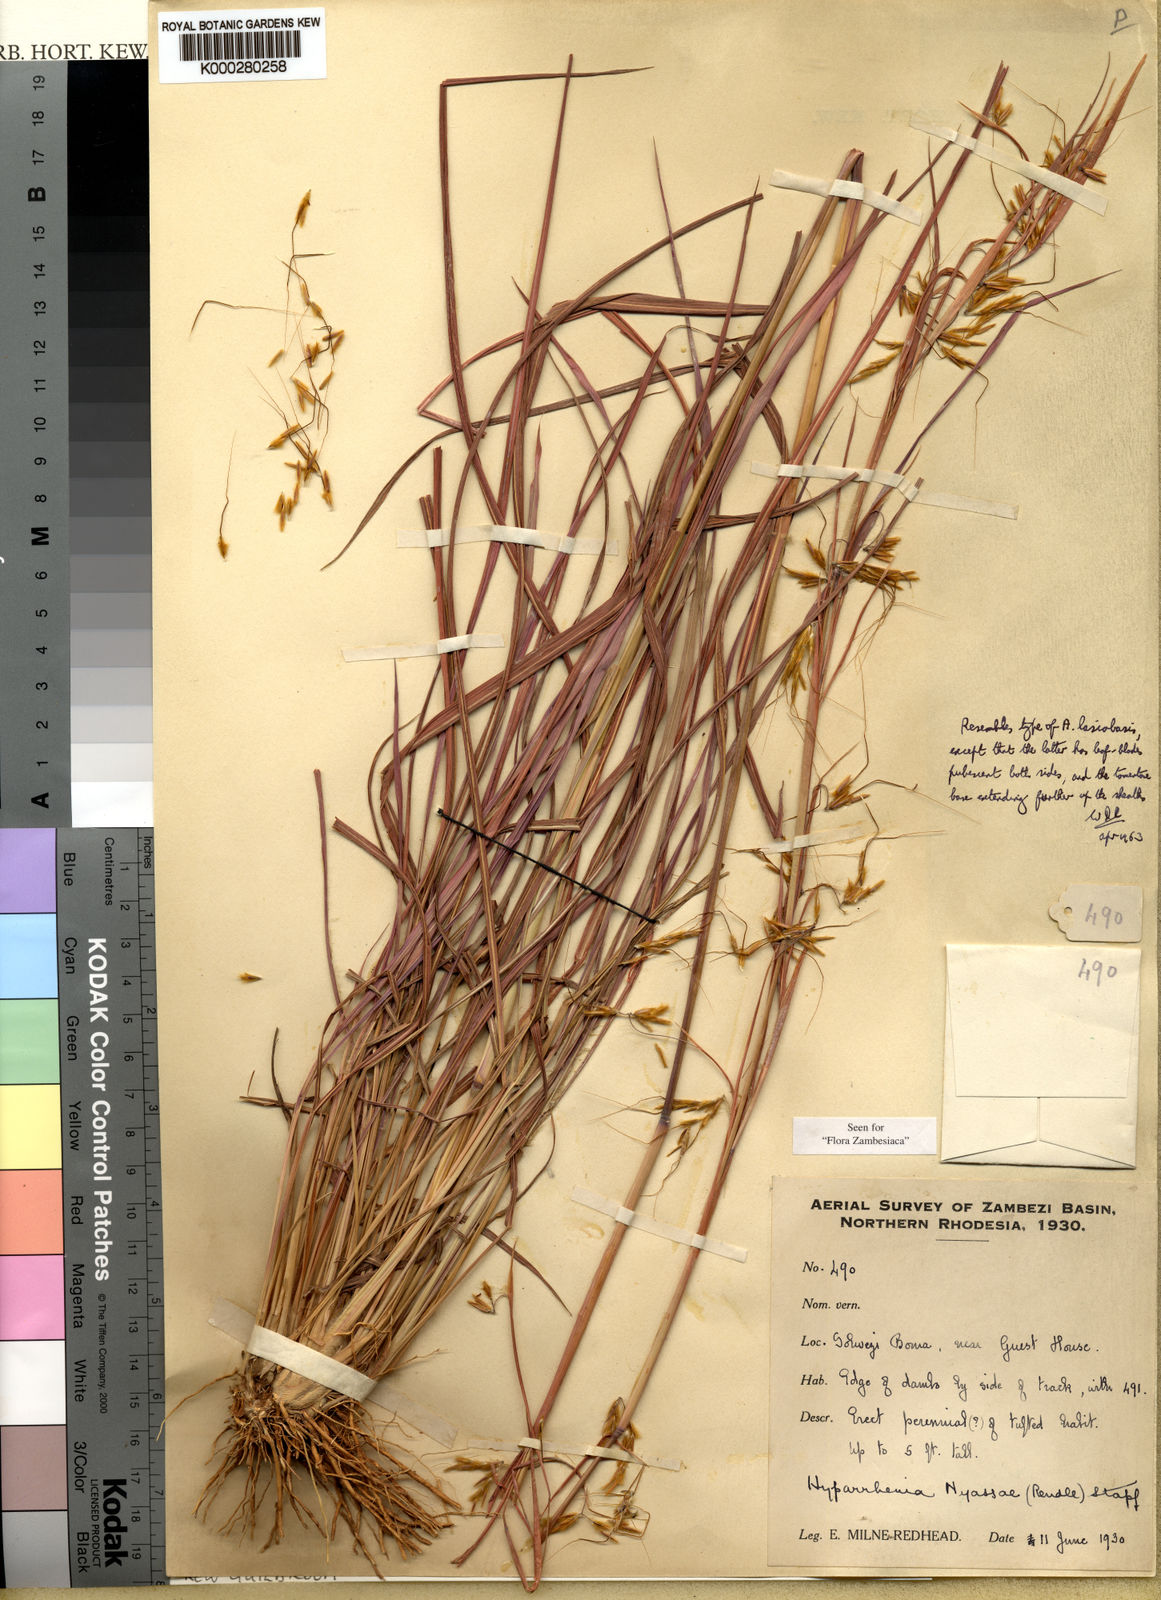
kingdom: Plantae
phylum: Tracheophyta
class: Liliopsida
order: Poales
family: Poaceae
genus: Hyparrhenia
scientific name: Hyparrhenia nyassae
